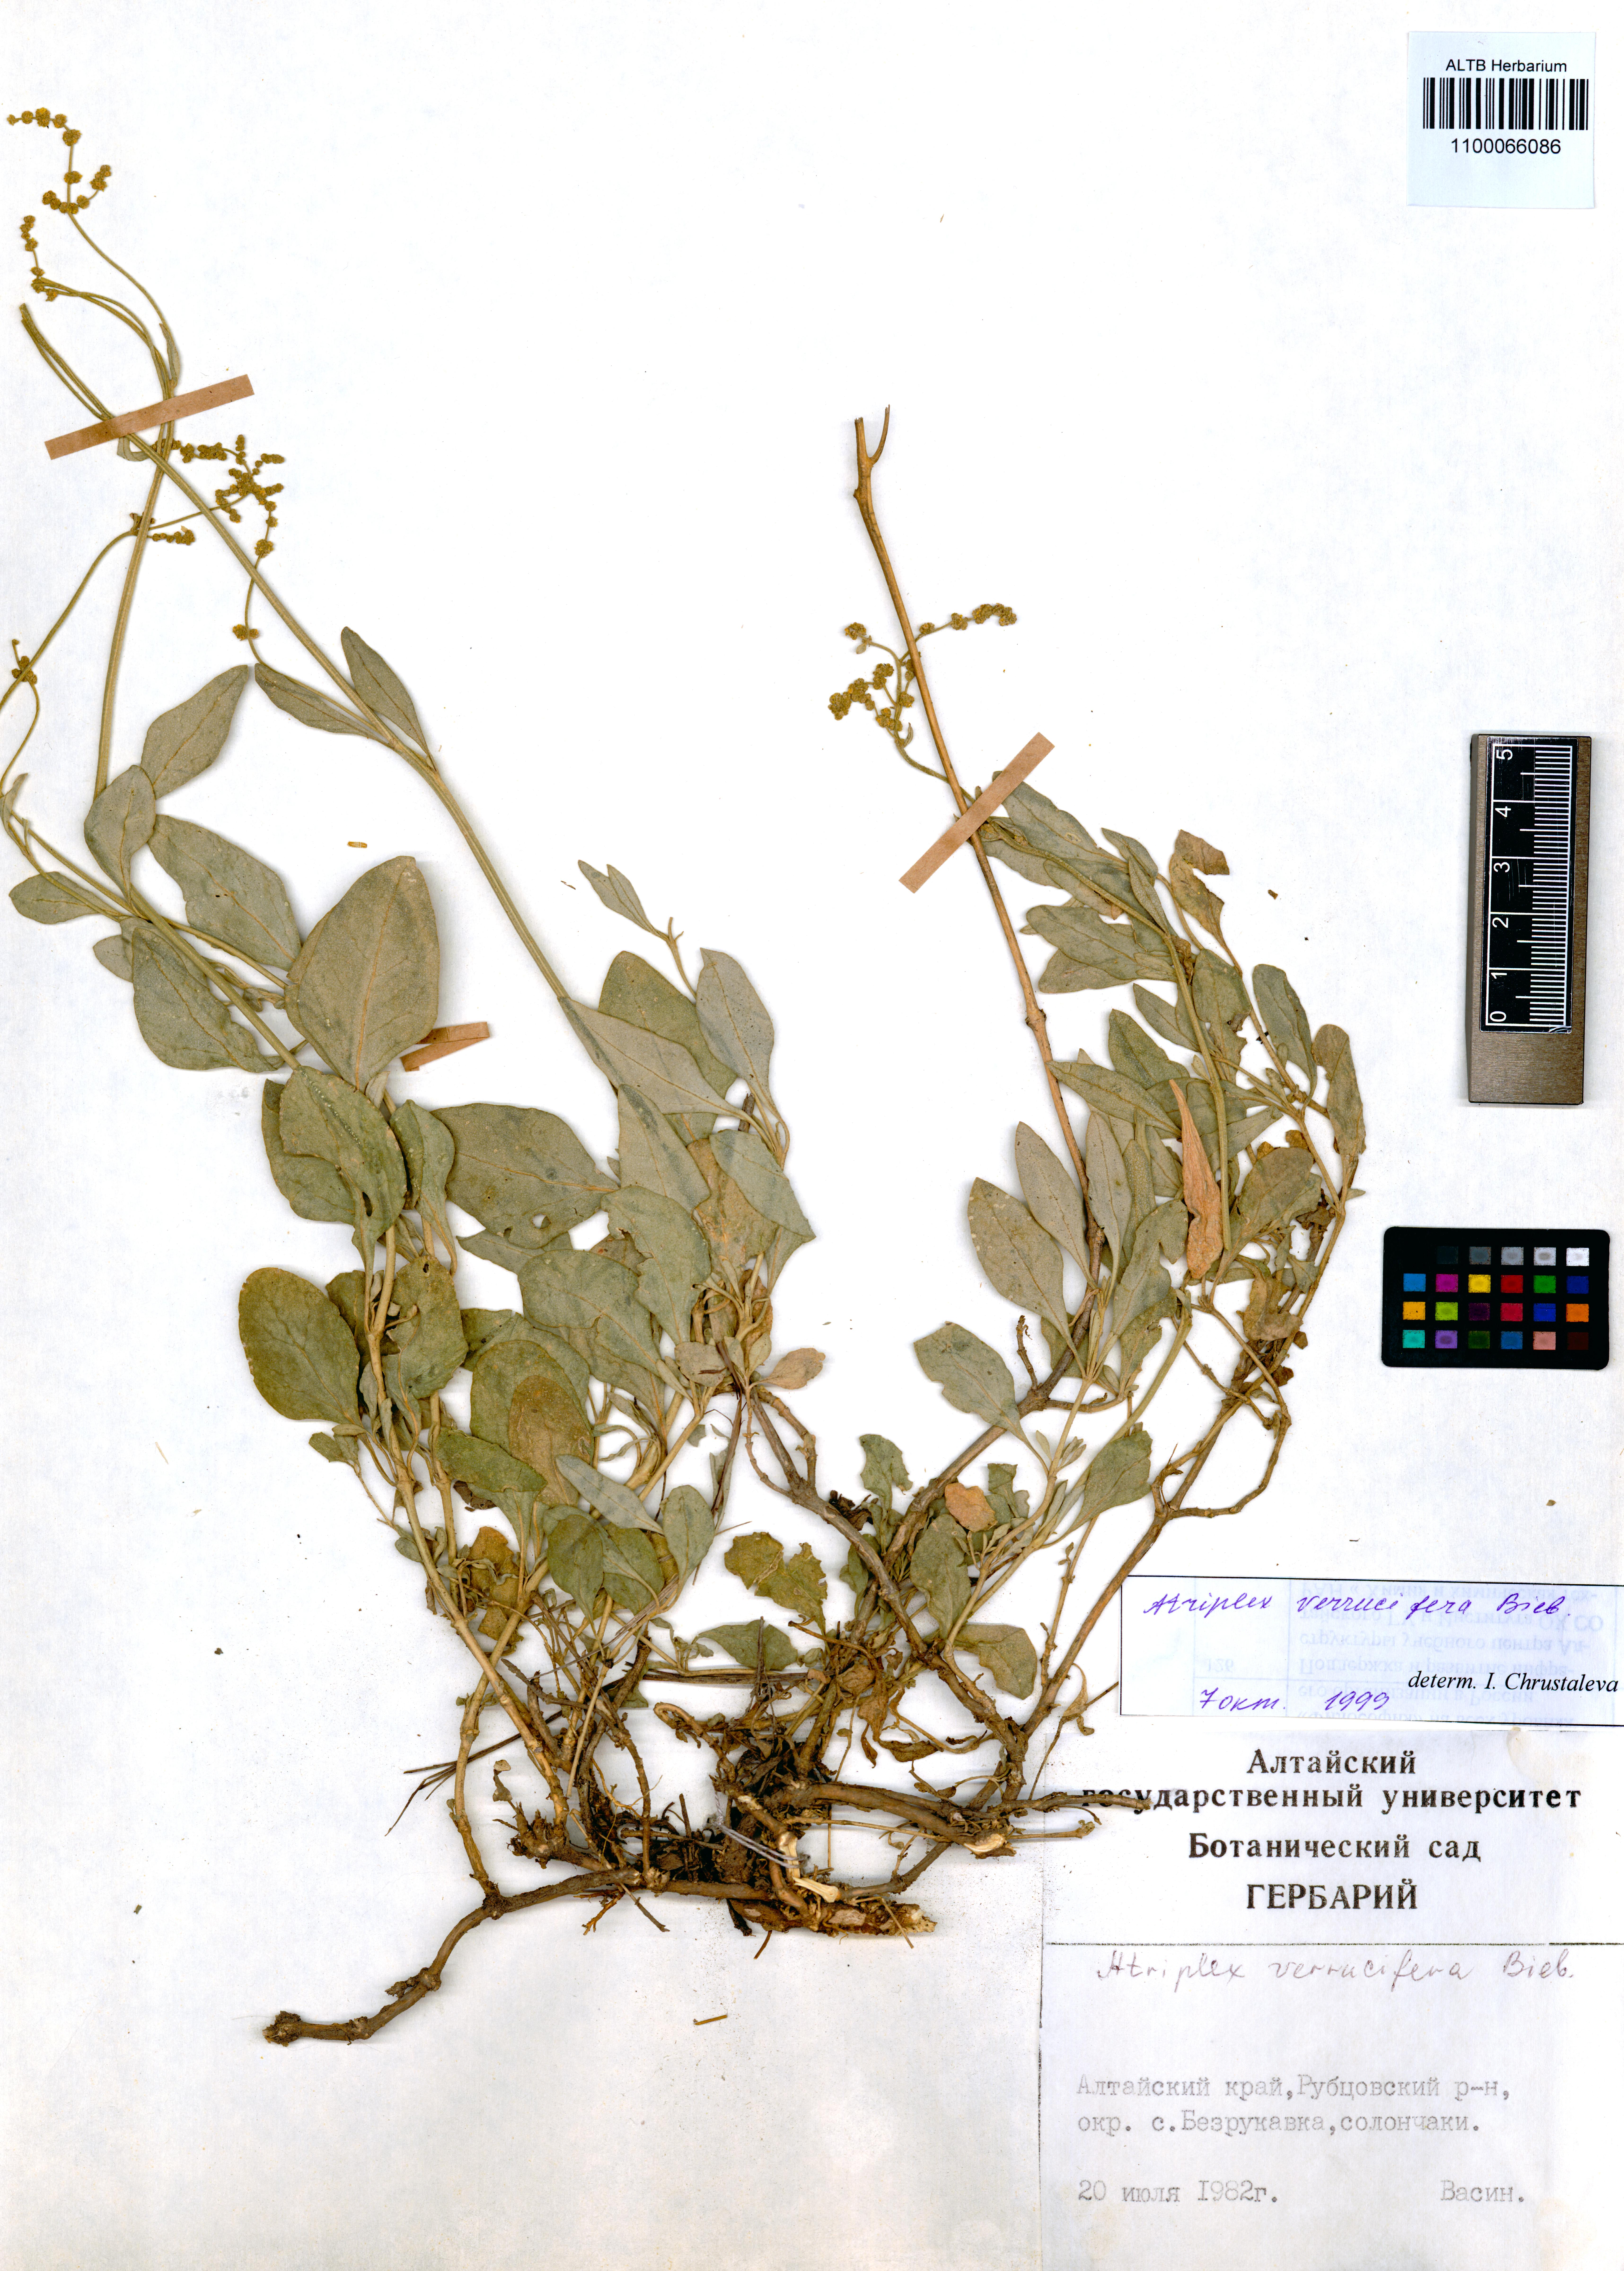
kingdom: Plantae
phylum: Tracheophyta
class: Magnoliopsida
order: Caryophyllales
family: Amaranthaceae
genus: Halimione
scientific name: Halimione verrucifera
